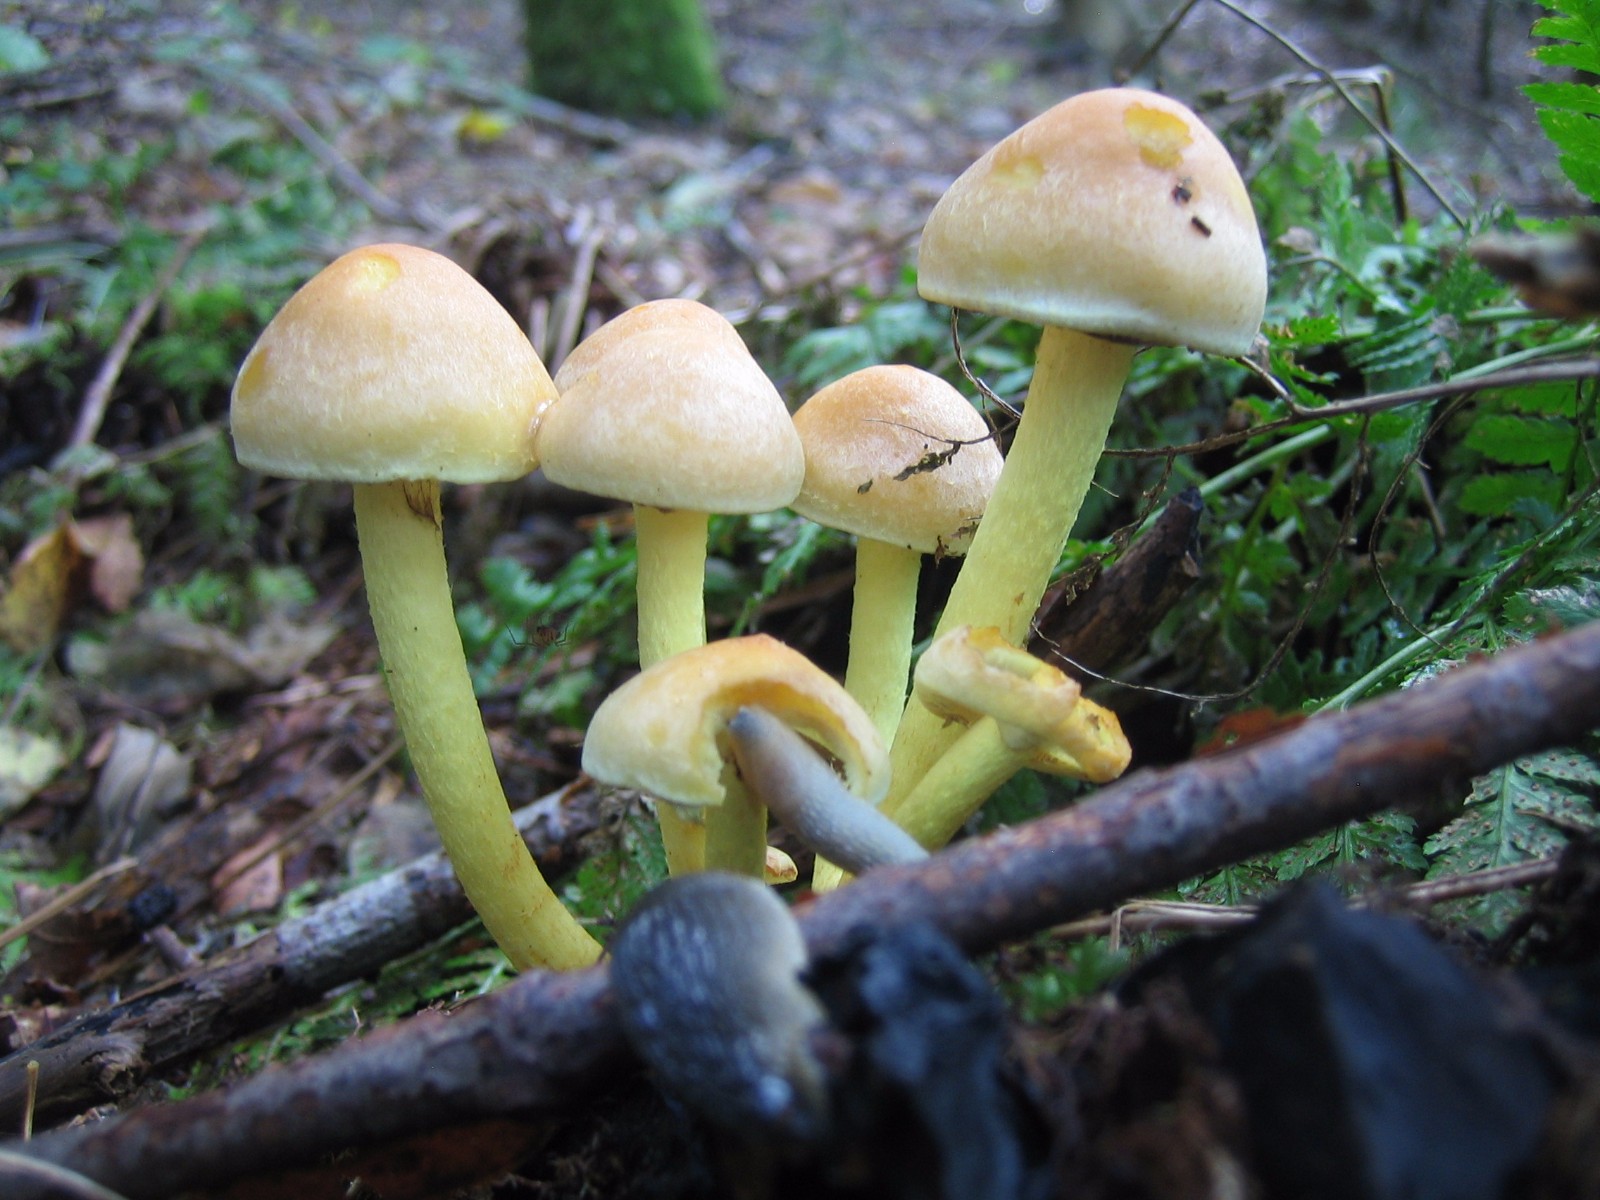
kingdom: Fungi
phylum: Basidiomycota
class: Agaricomycetes
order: Agaricales
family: Strophariaceae
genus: Hypholoma
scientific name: Hypholoma fasciculare
